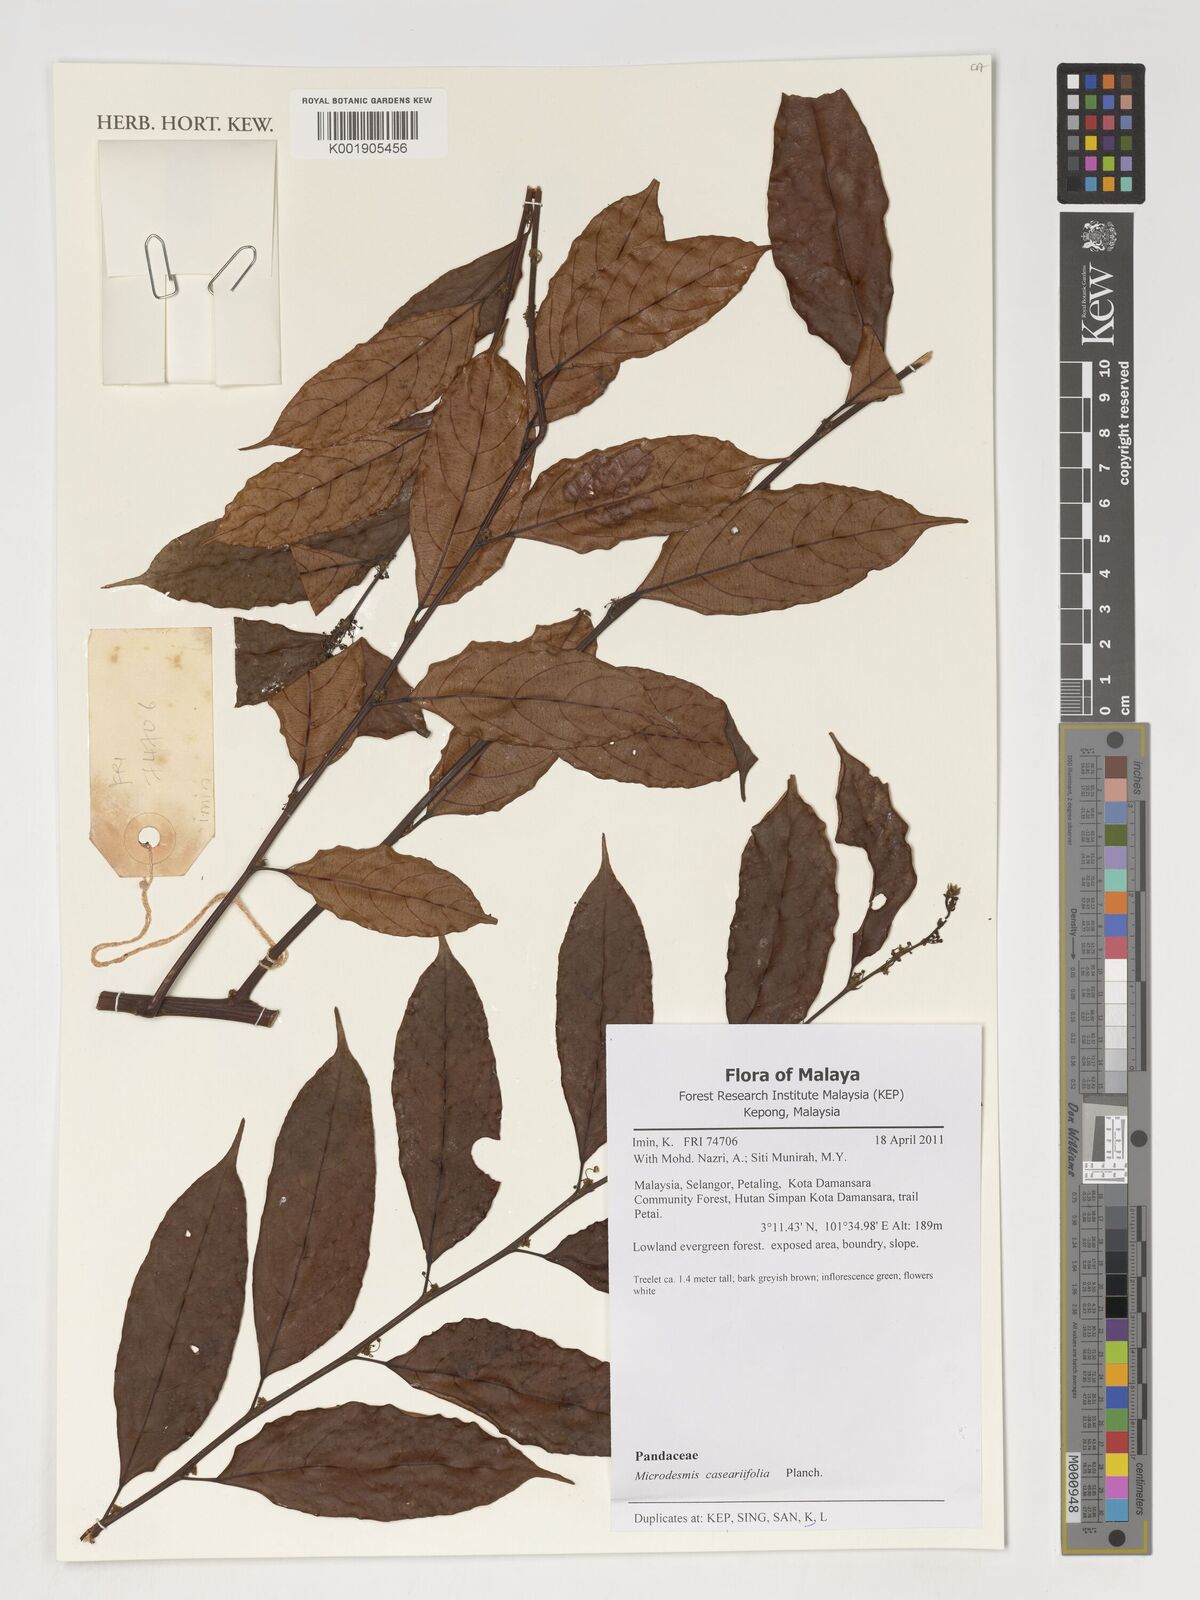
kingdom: Plantae
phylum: Tracheophyta
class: Magnoliopsida
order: Malpighiales
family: Pandaceae
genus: Microdesmis
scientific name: Microdesmis caseariifolia
